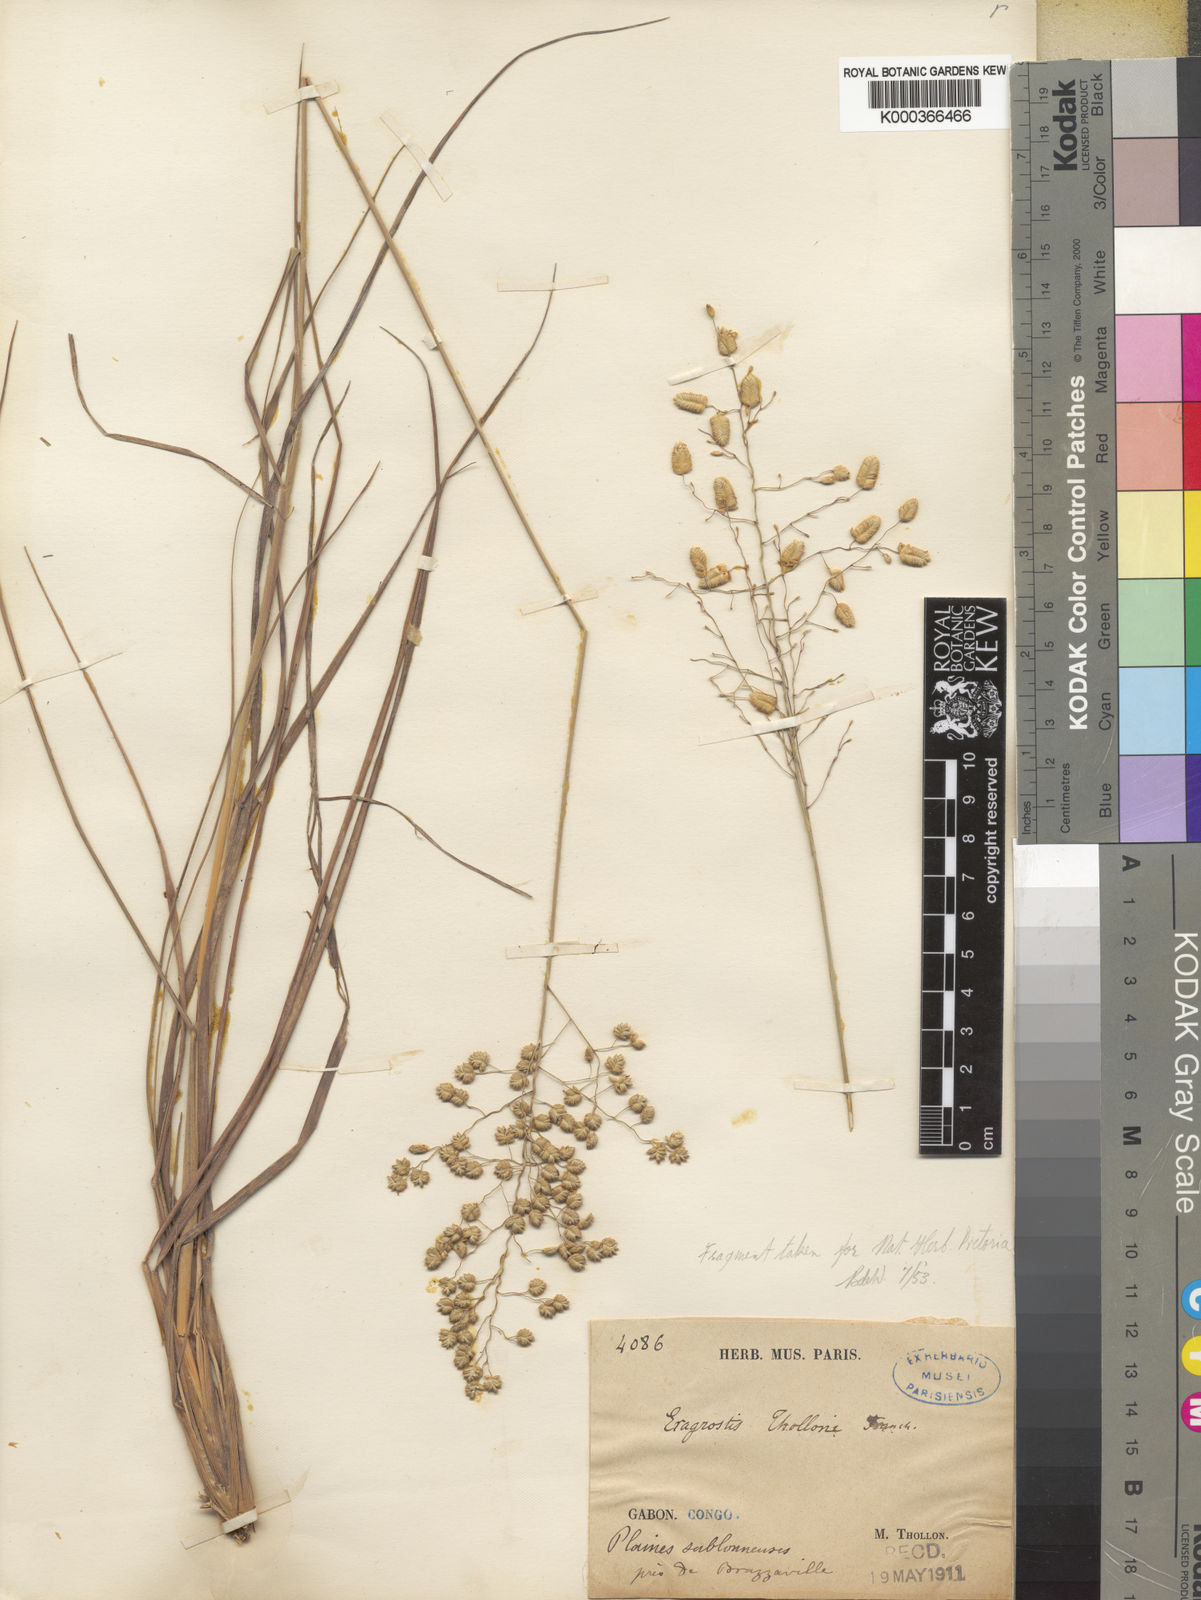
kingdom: Plantae
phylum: Tracheophyta
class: Liliopsida
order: Poales
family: Poaceae
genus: Eragrostis
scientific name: Eragrostis thollonii
